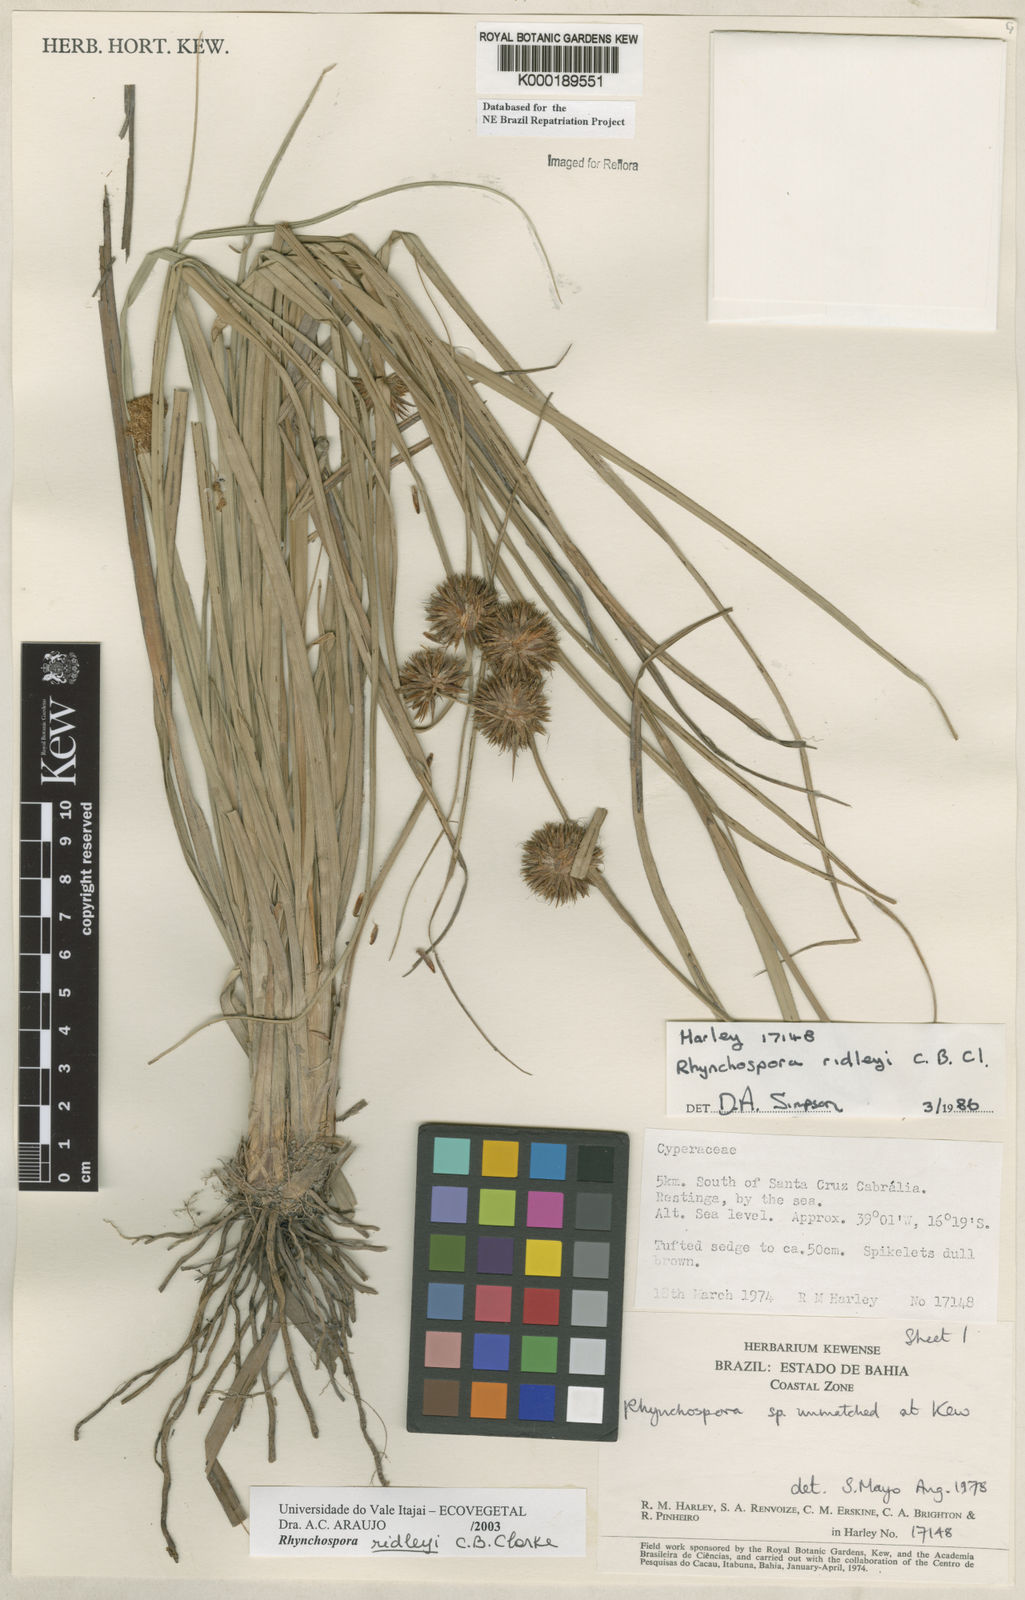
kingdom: Plantae
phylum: Tracheophyta
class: Liliopsida
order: Poales
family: Cyperaceae
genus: Rhynchospora
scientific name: Rhynchospora ridleyi
